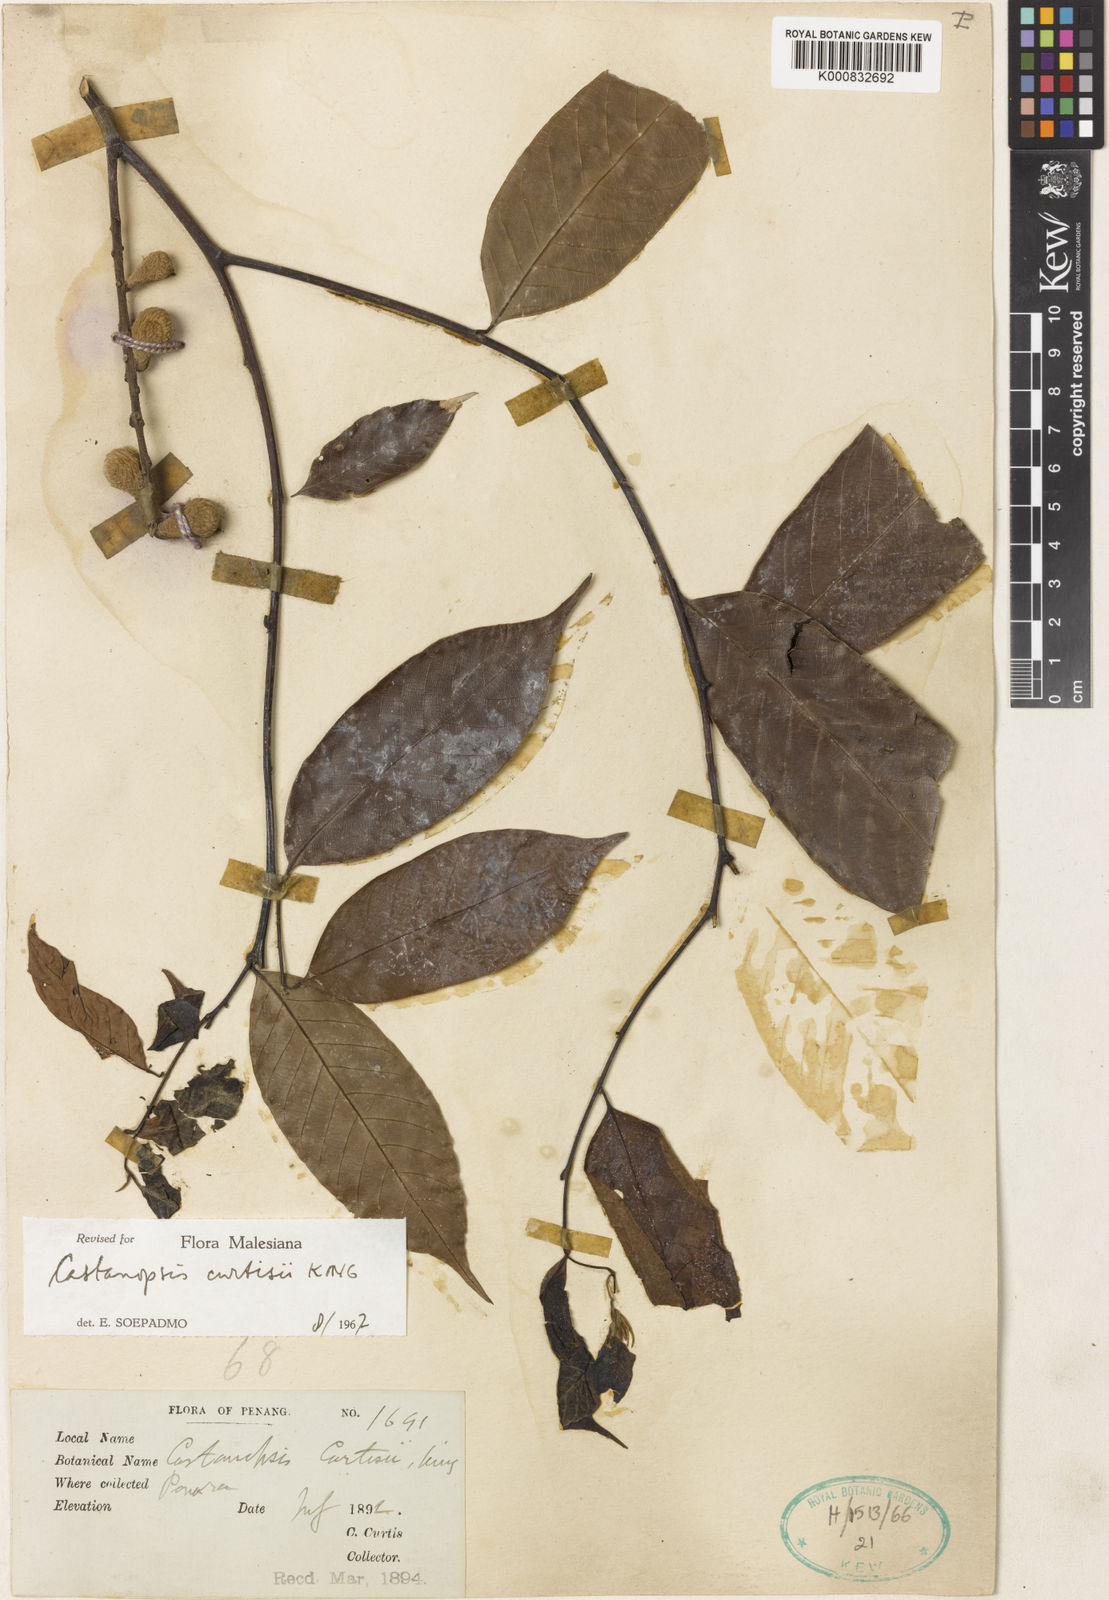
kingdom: Plantae
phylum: Tracheophyta
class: Magnoliopsida
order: Fagales
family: Fagaceae
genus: Castanopsis
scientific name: Castanopsis curtisii
